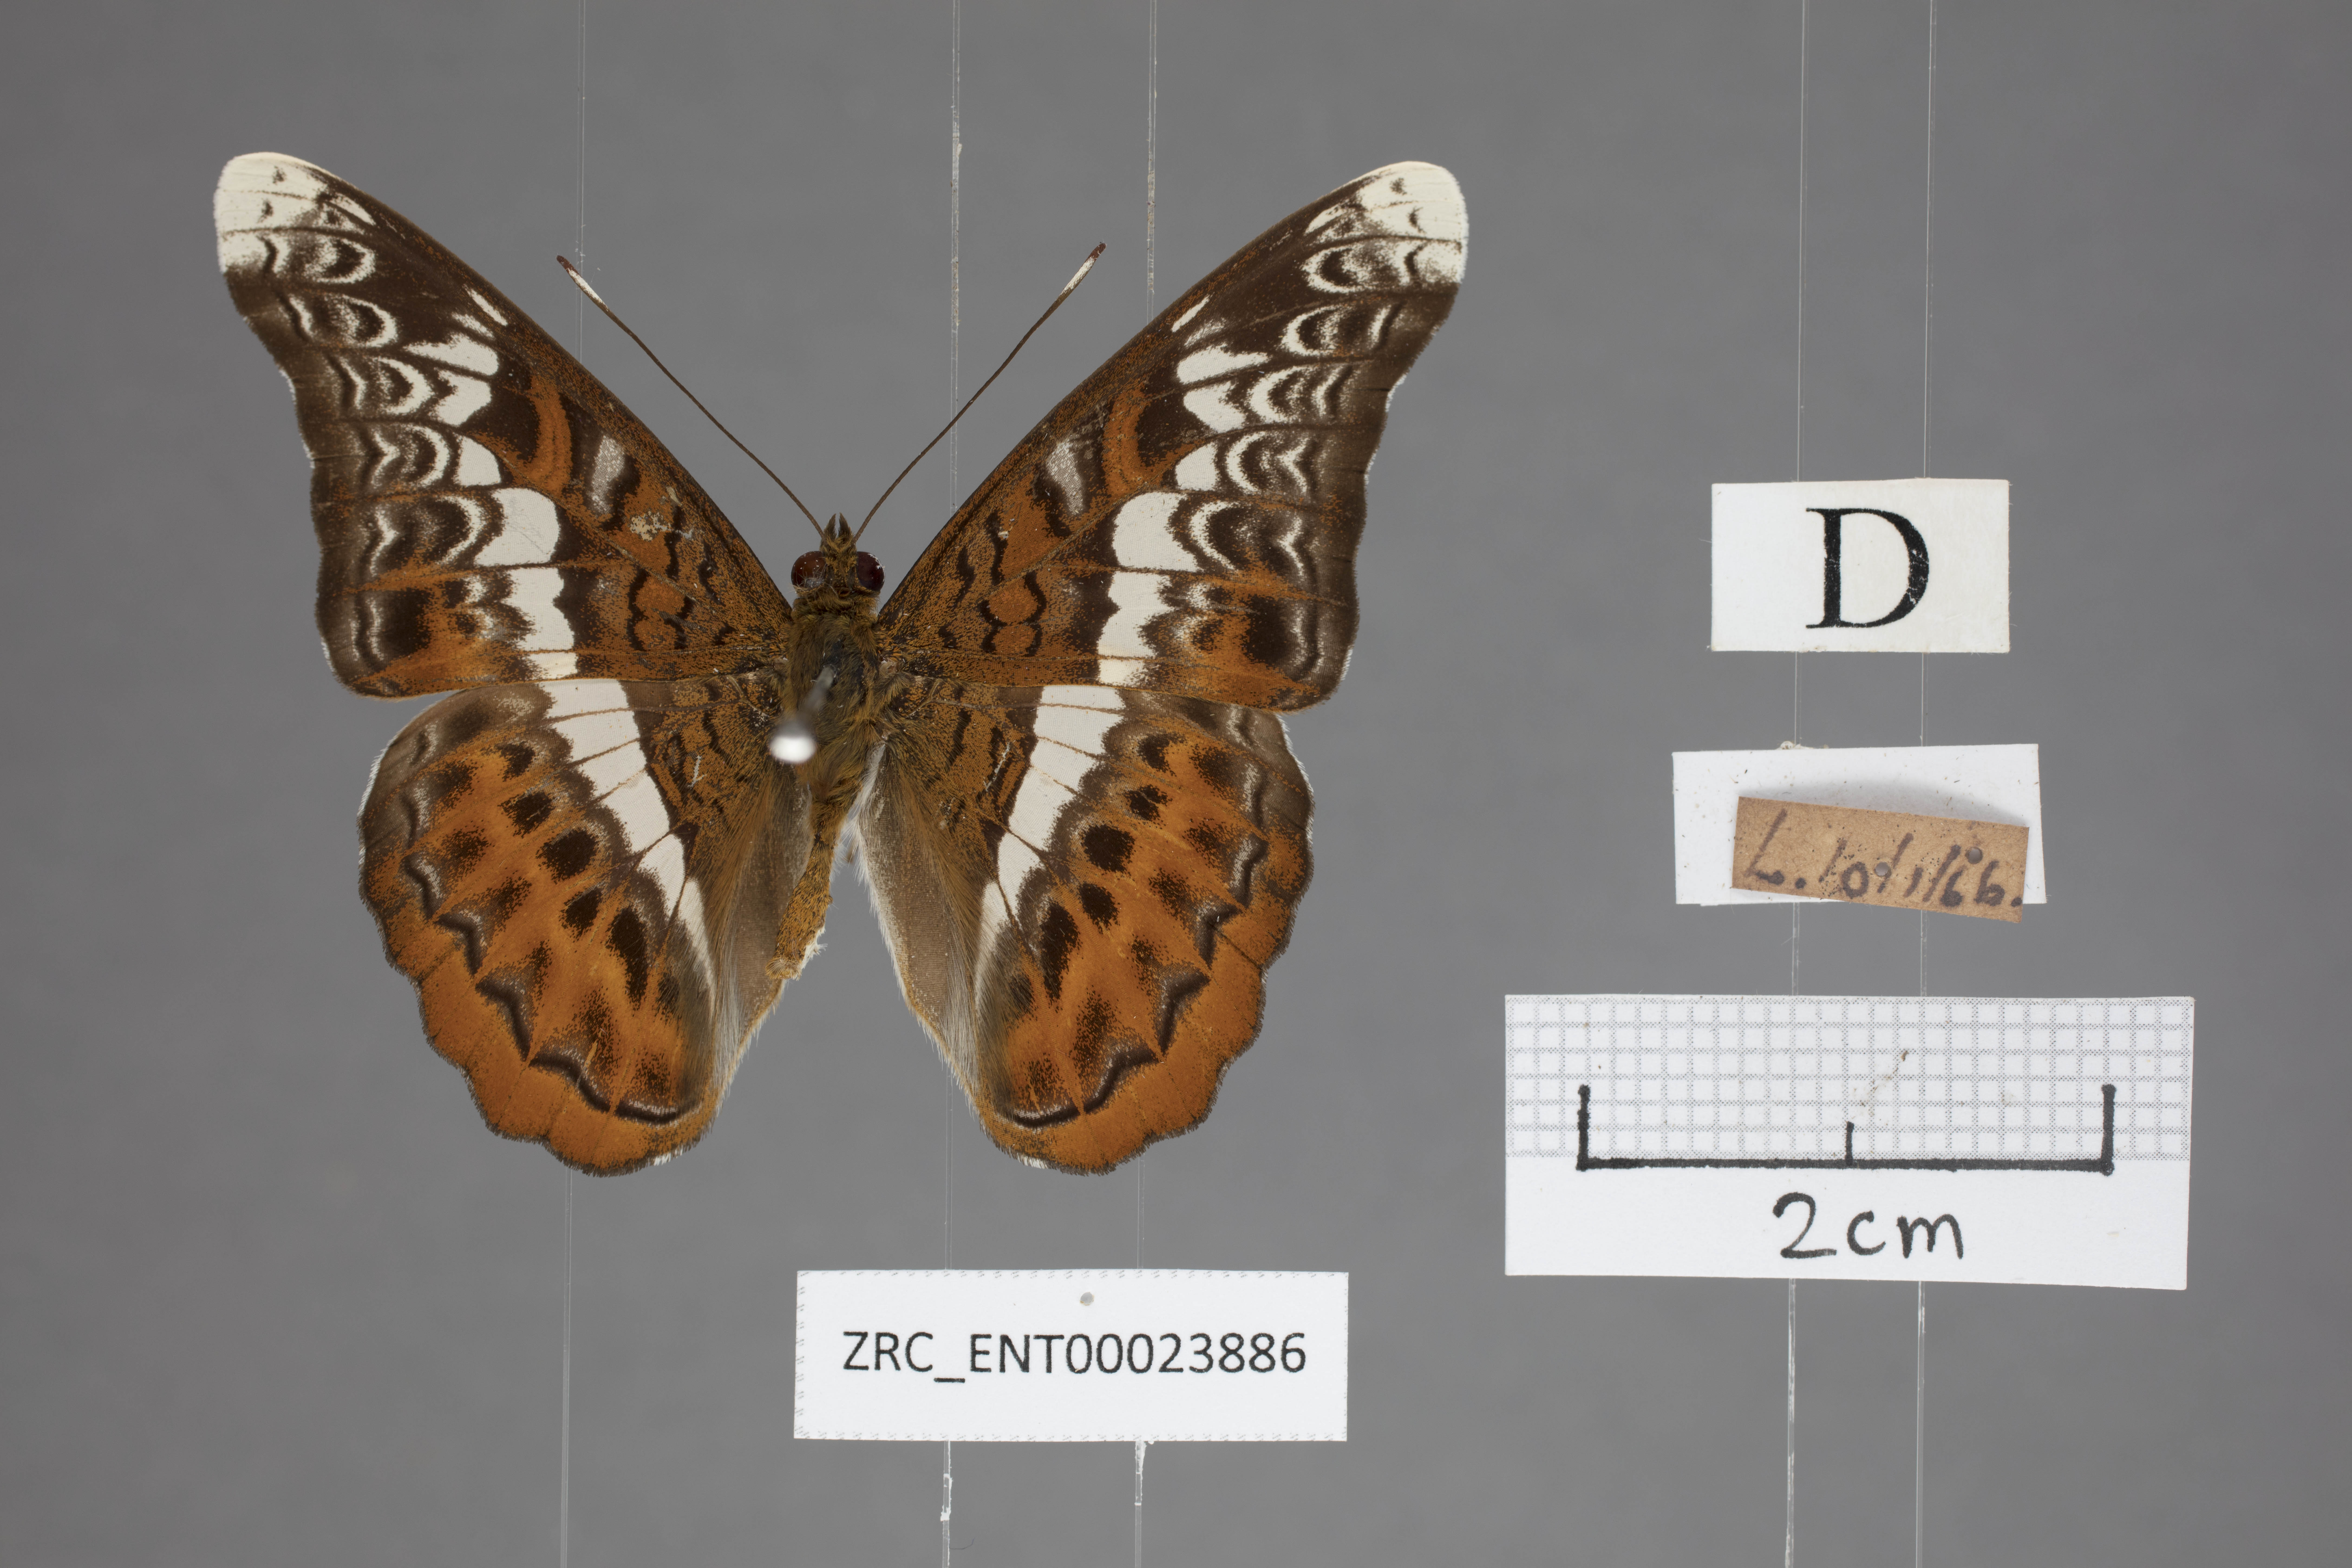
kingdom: Animalia
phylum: Arthropoda
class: Insecta
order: Lepidoptera
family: Nymphalidae
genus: Lebadea
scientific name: Lebadea martha
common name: Knight
